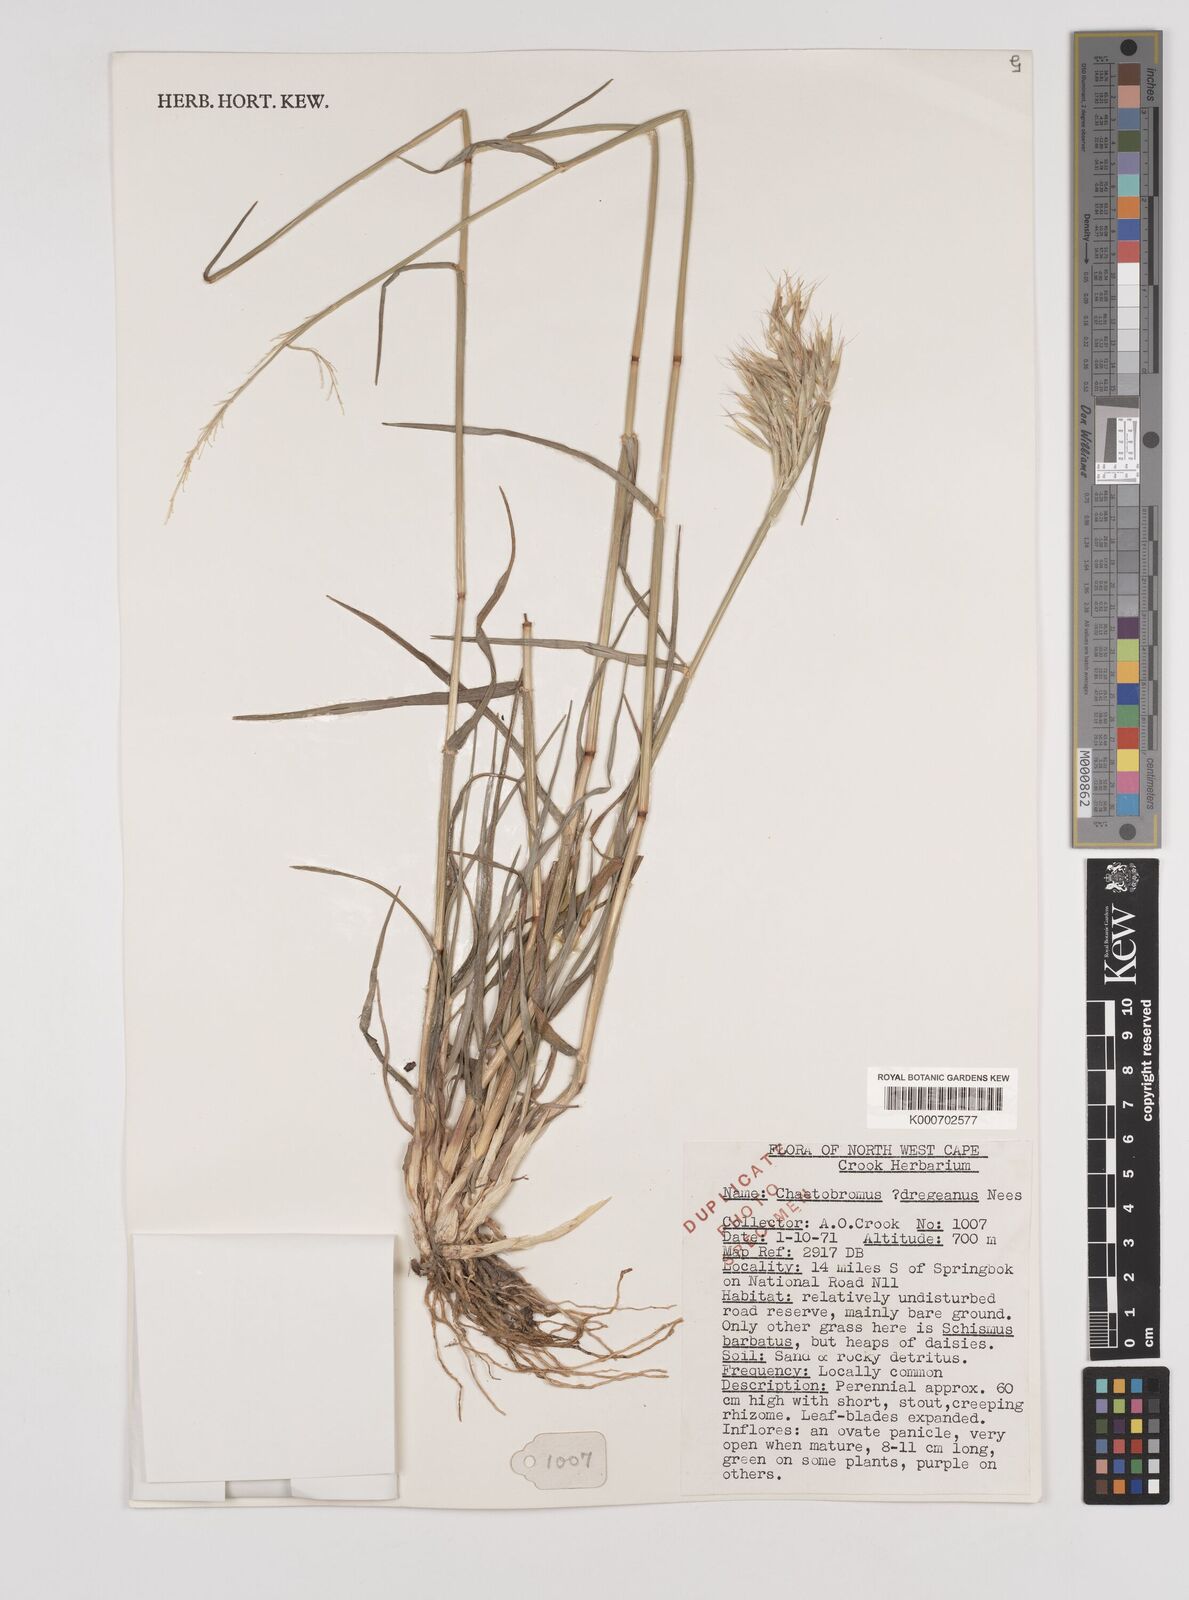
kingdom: Plantae
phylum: Tracheophyta
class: Liliopsida
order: Poales
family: Poaceae
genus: Chaetobromus
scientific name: Chaetobromus involucratus
